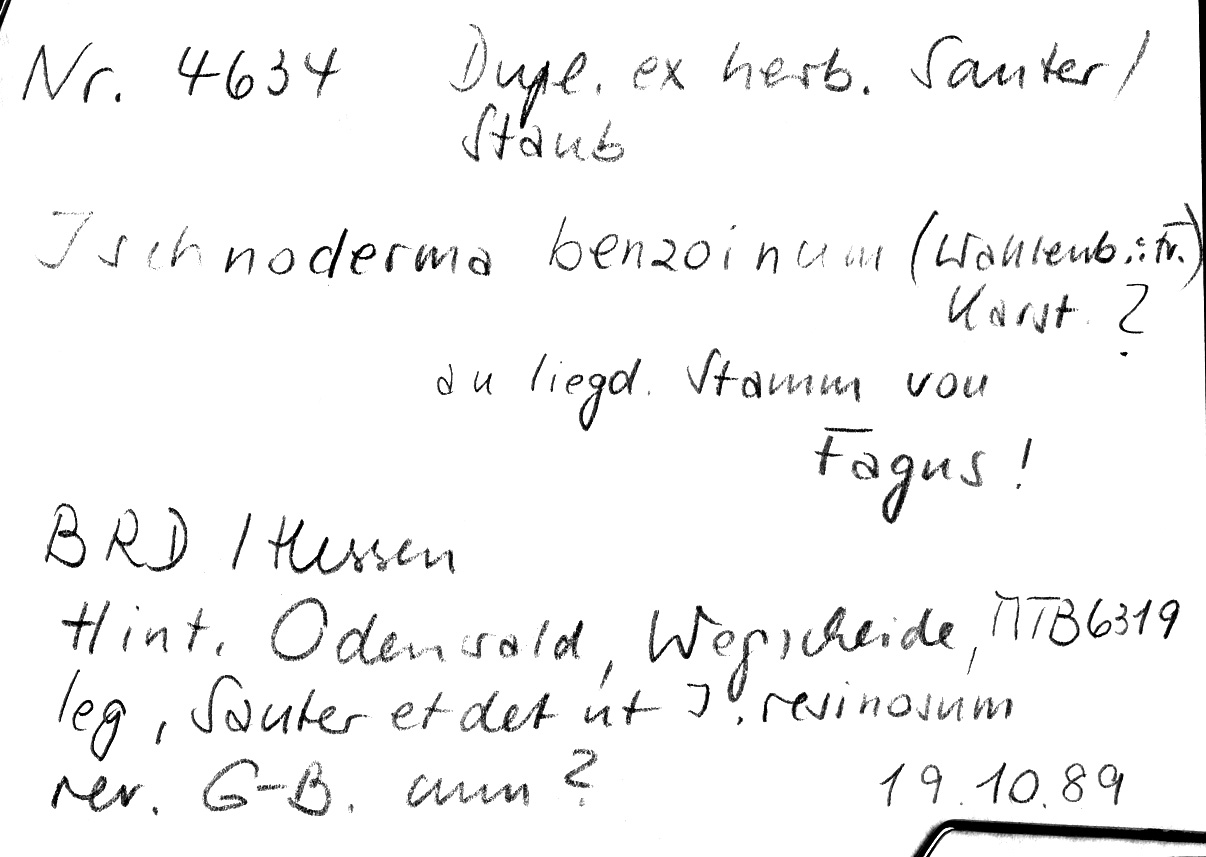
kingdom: Fungi
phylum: Basidiomycota
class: Agaricomycetes
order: Polyporales
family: Ischnodermataceae
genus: Ischnoderma
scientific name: Ischnoderma benzoinum
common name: Benzoin bracket
